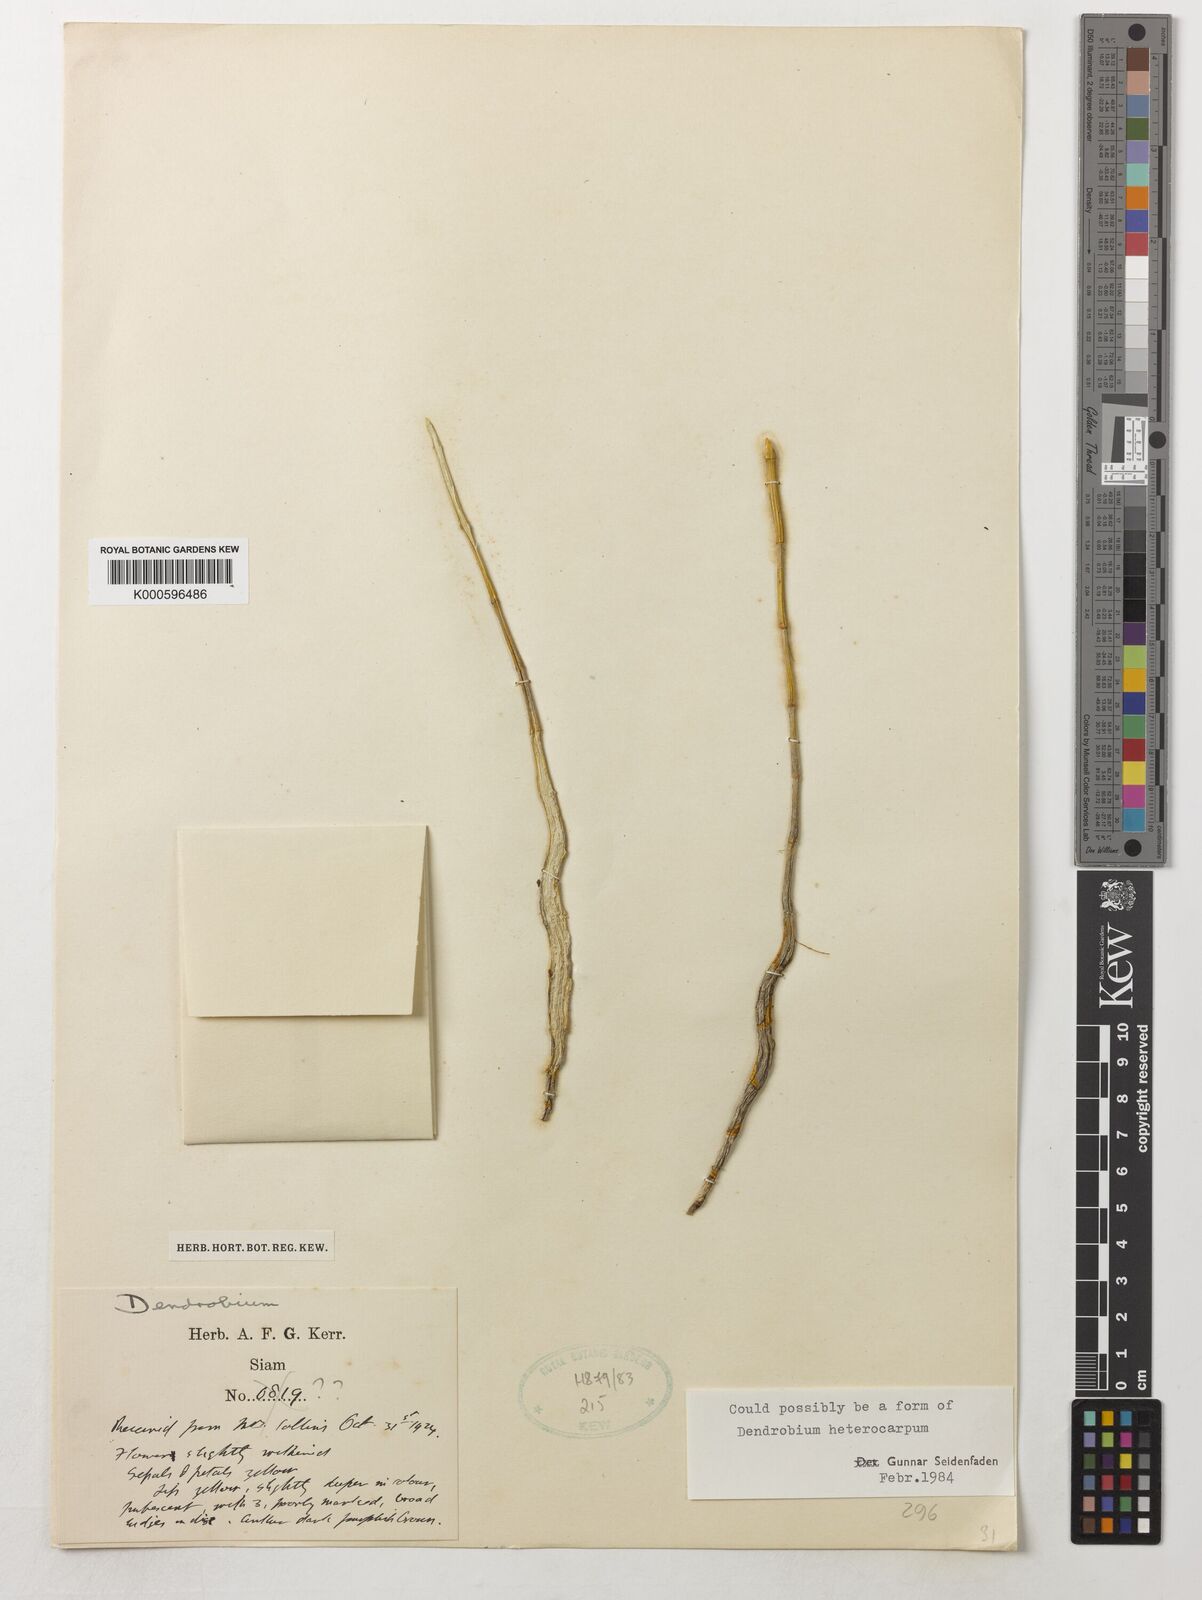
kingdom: Plantae
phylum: Tracheophyta
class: Liliopsida
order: Asparagales
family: Orchidaceae
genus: Dendrobium
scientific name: Dendrobium heterocarpum
